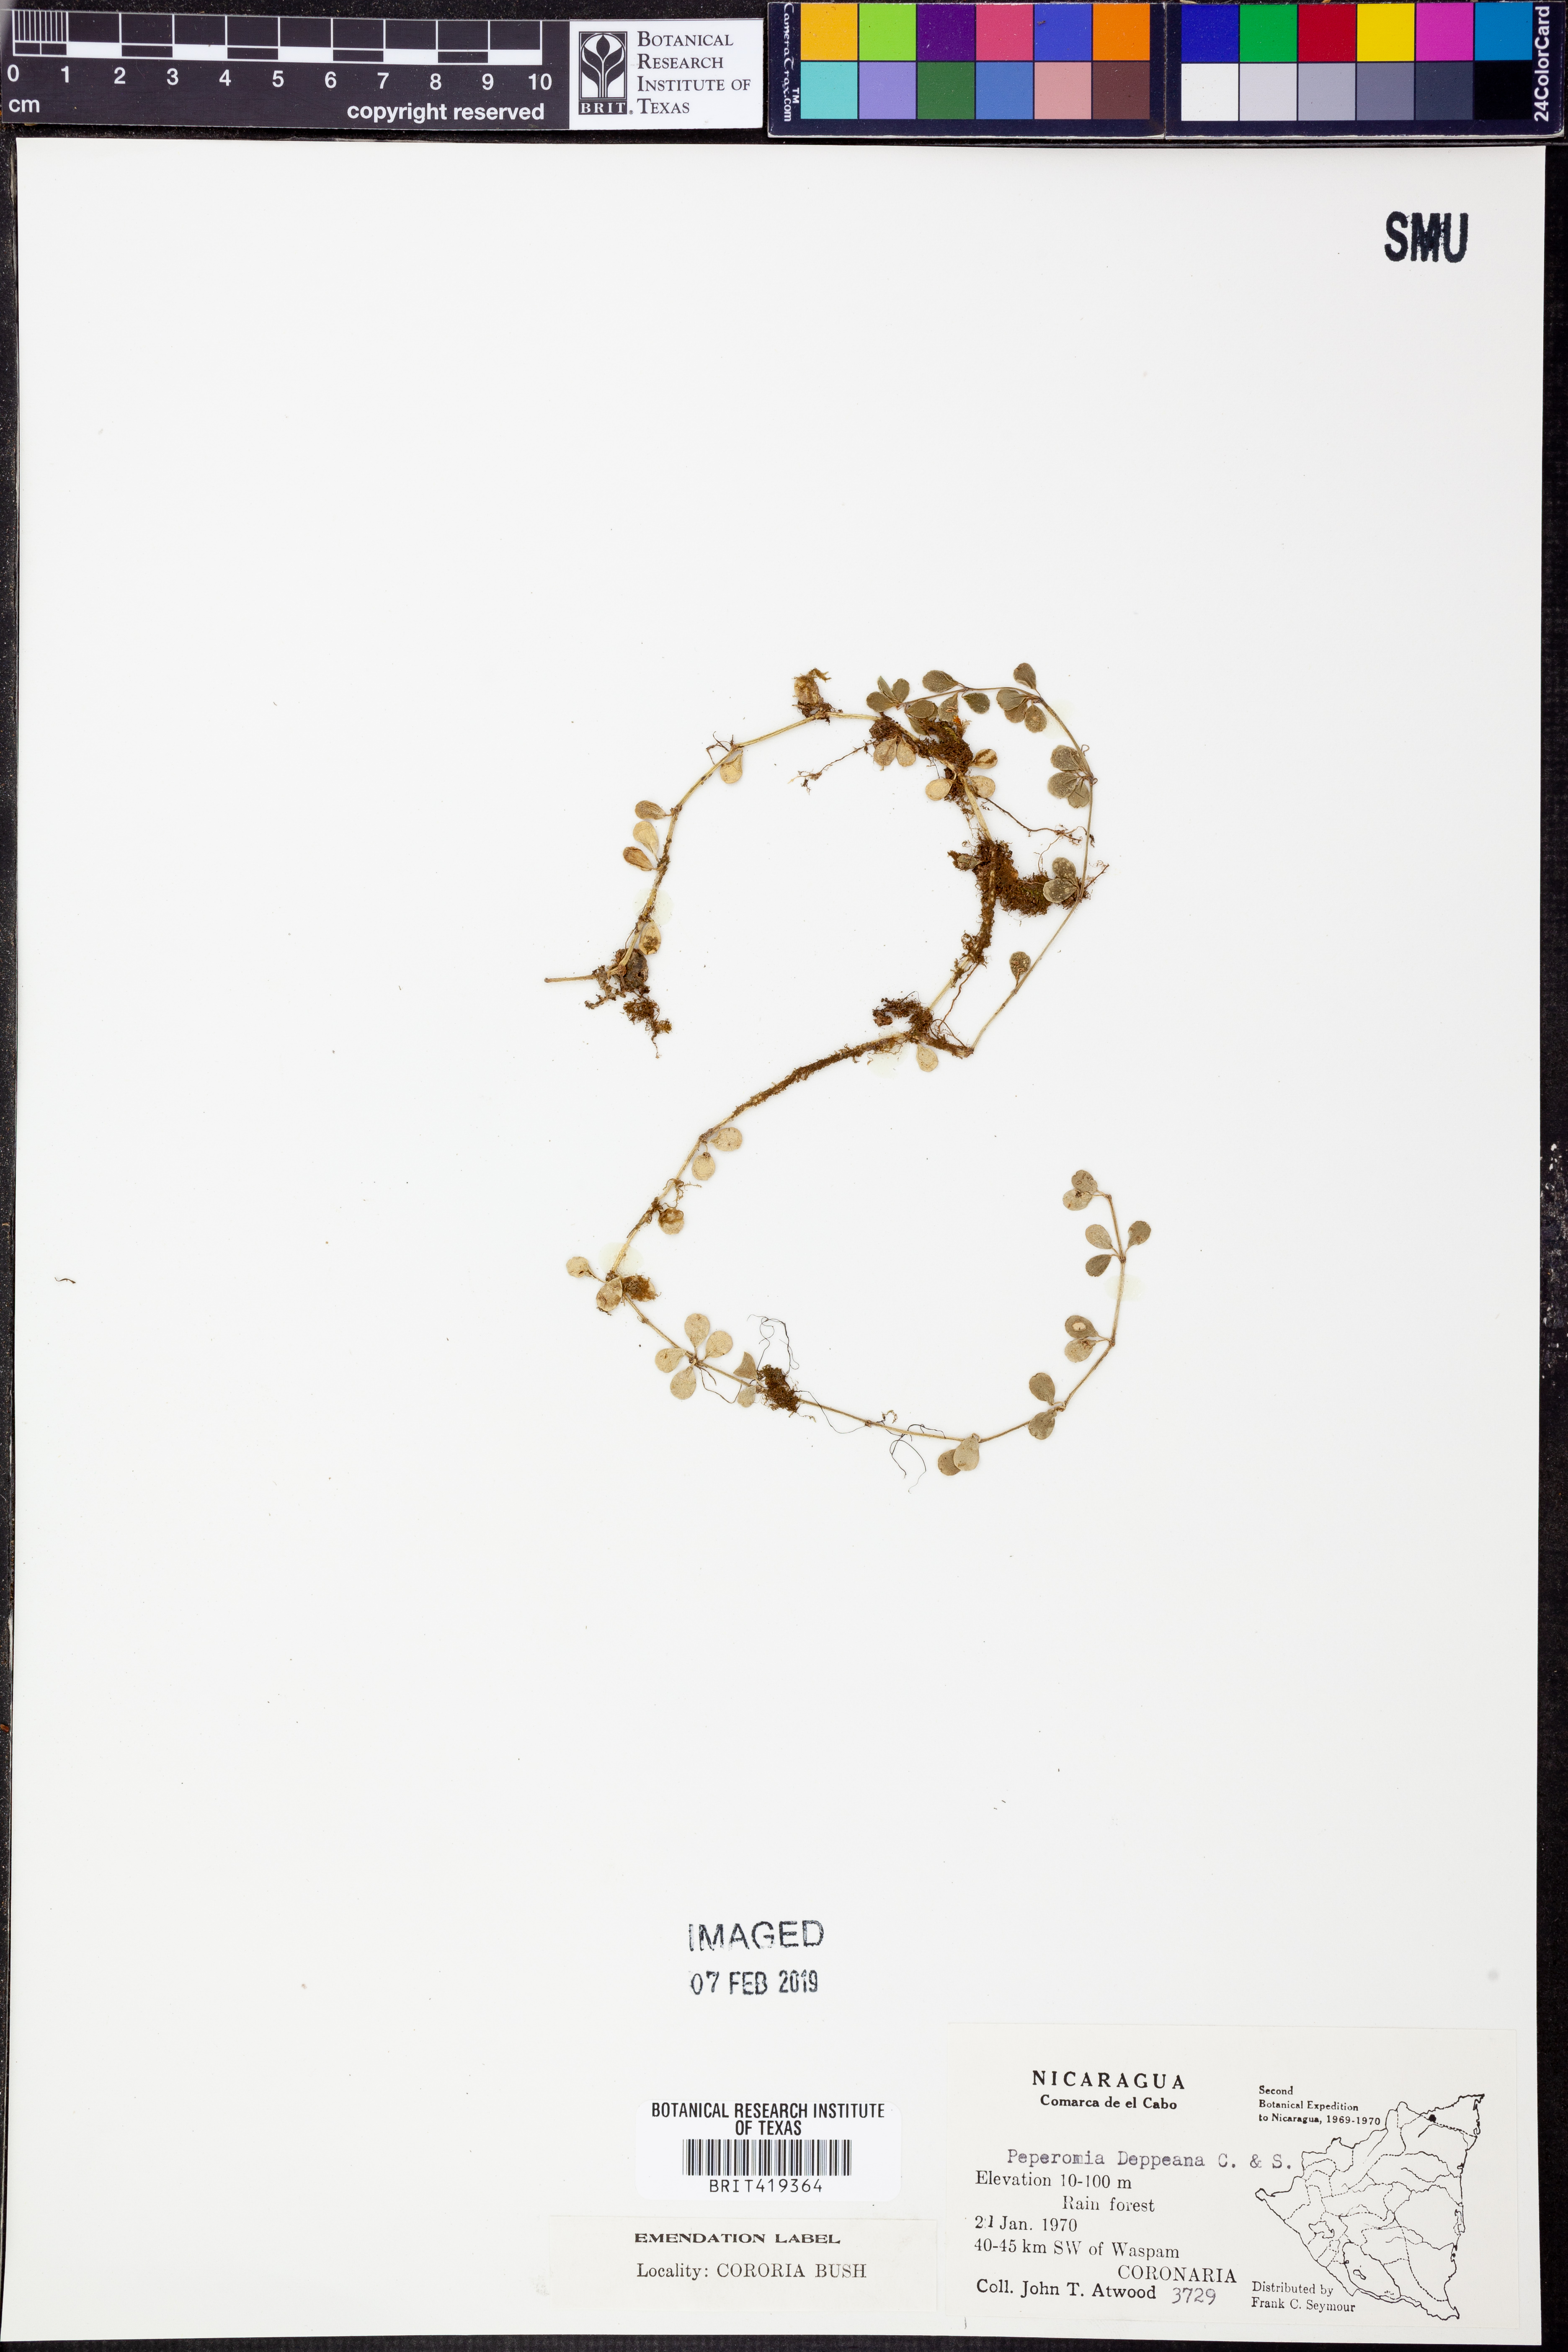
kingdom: Plantae
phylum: Tracheophyta
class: Magnoliopsida
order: Piperales
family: Piperaceae
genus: Peperomia
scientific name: Peperomia deppeana
